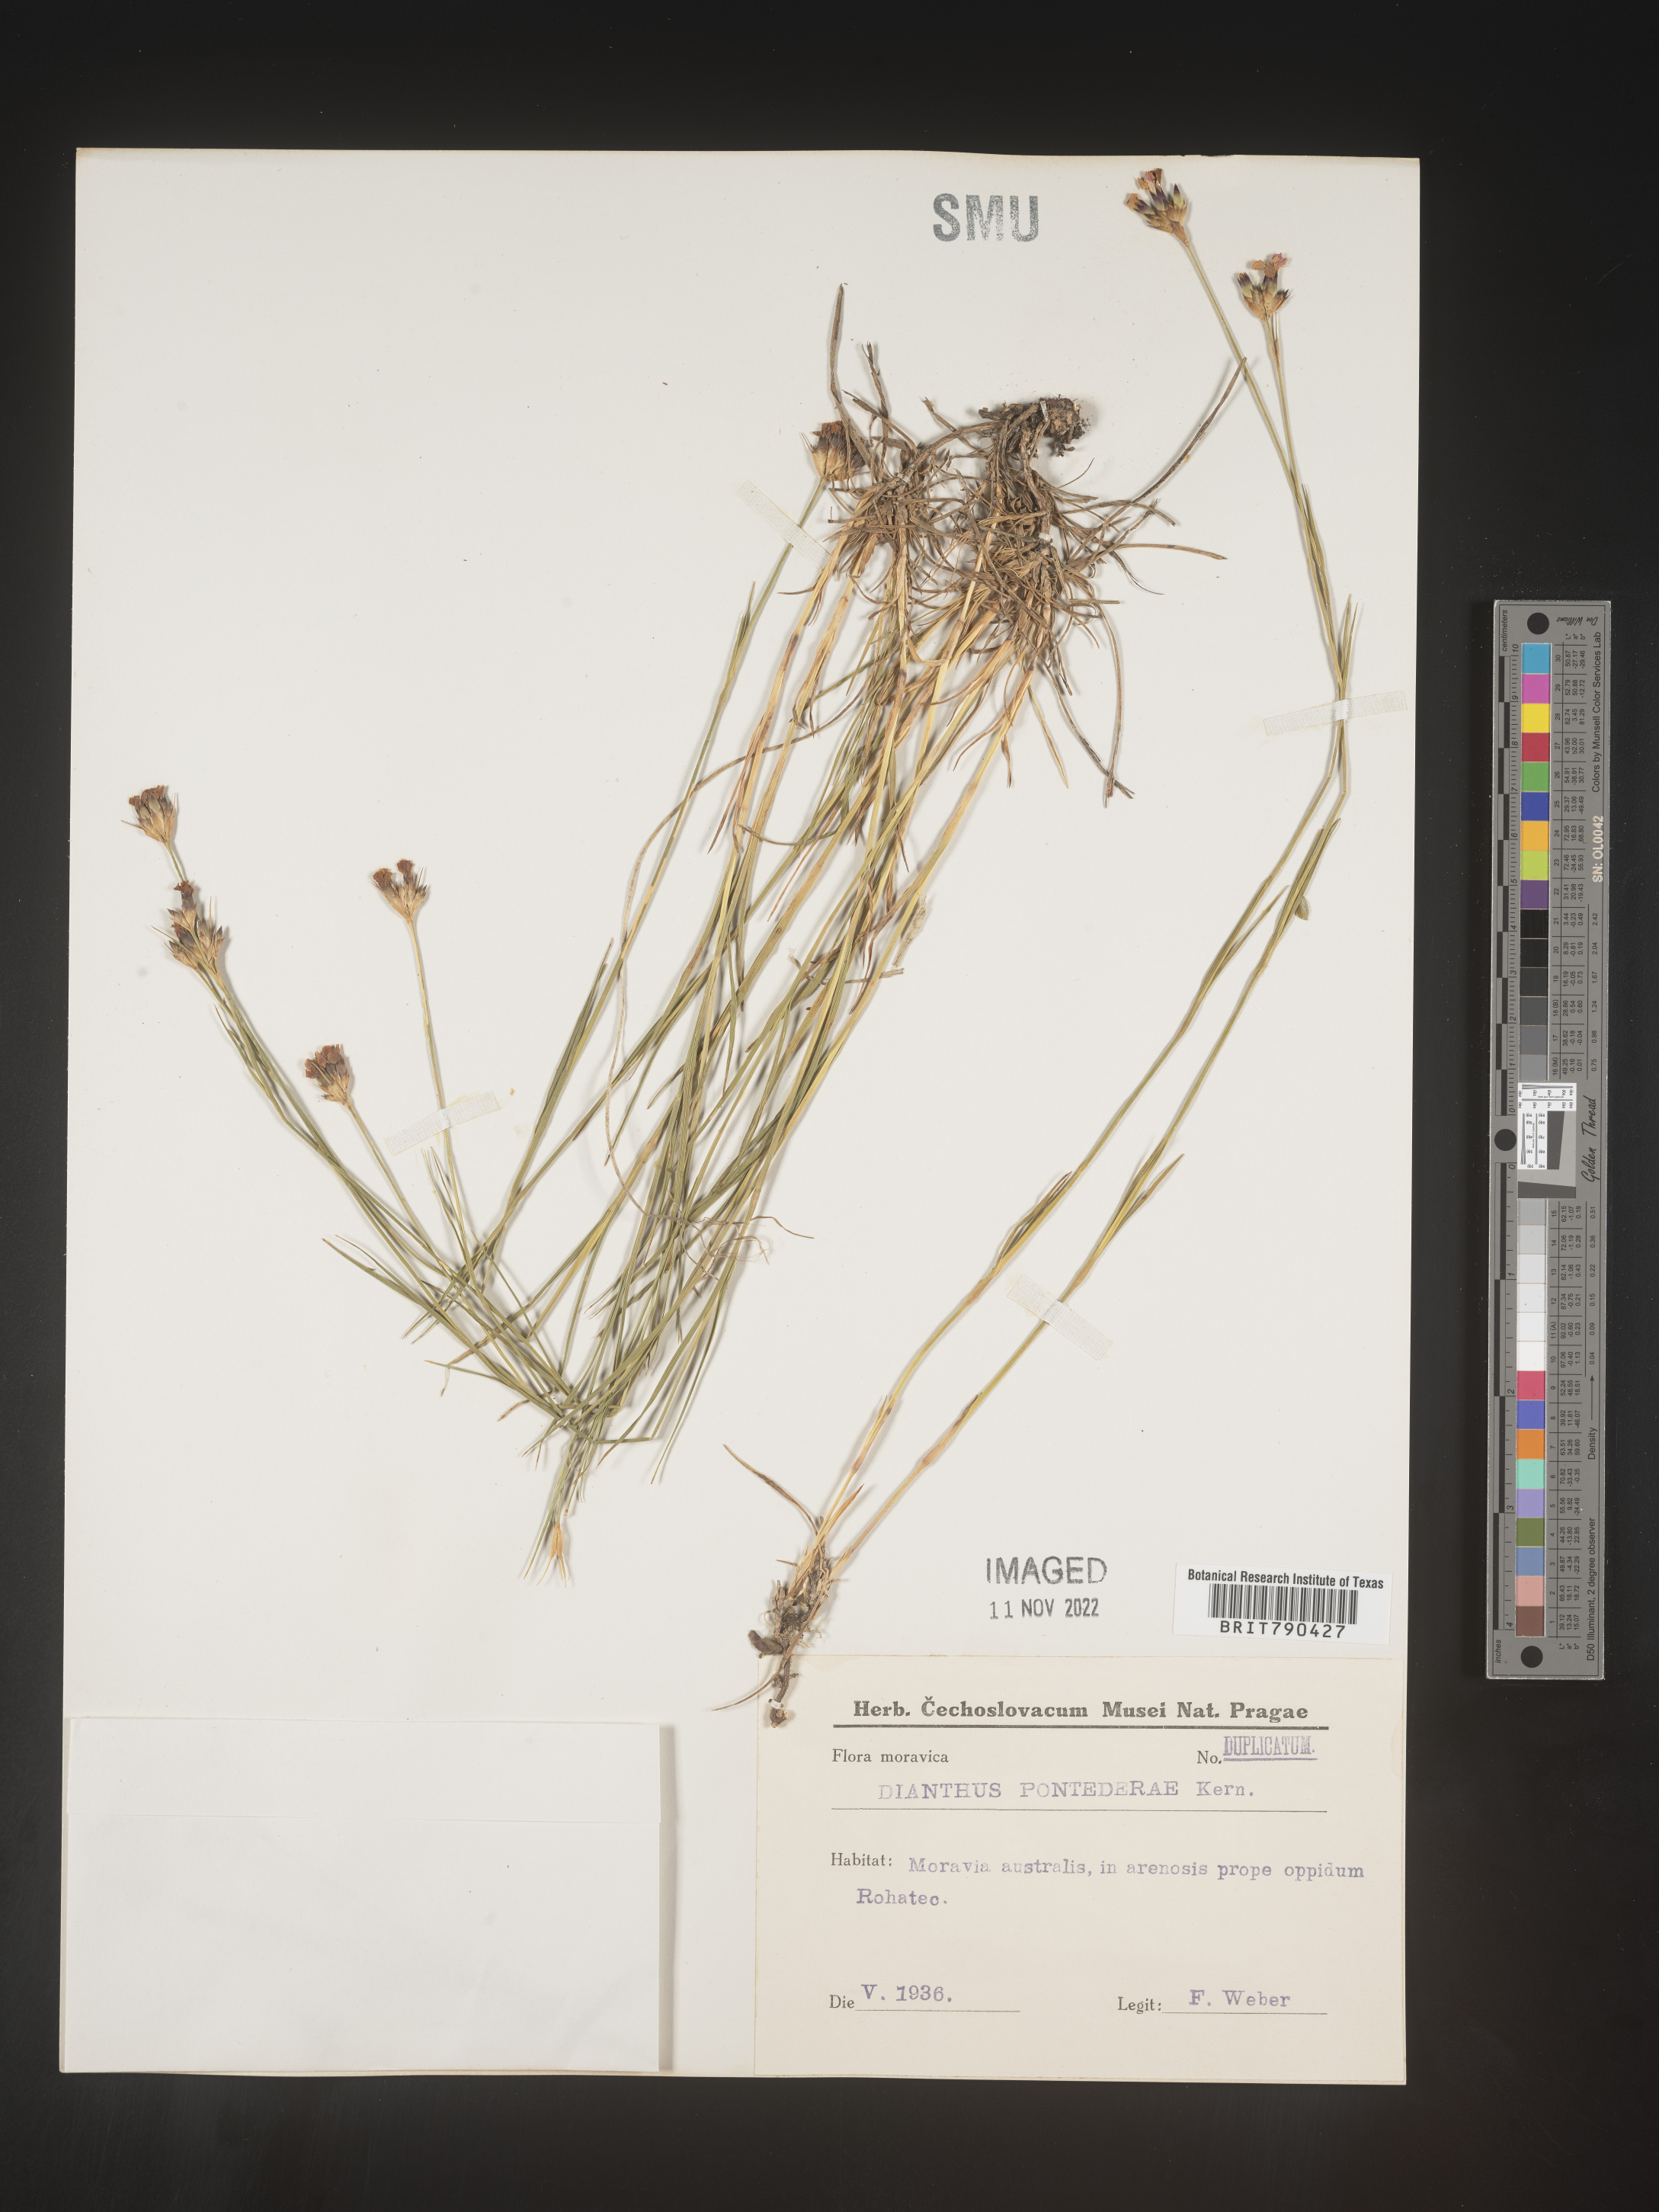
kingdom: Plantae
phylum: Tracheophyta
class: Magnoliopsida
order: Caryophyllales
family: Caryophyllaceae
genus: Dianthus
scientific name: Dianthus
